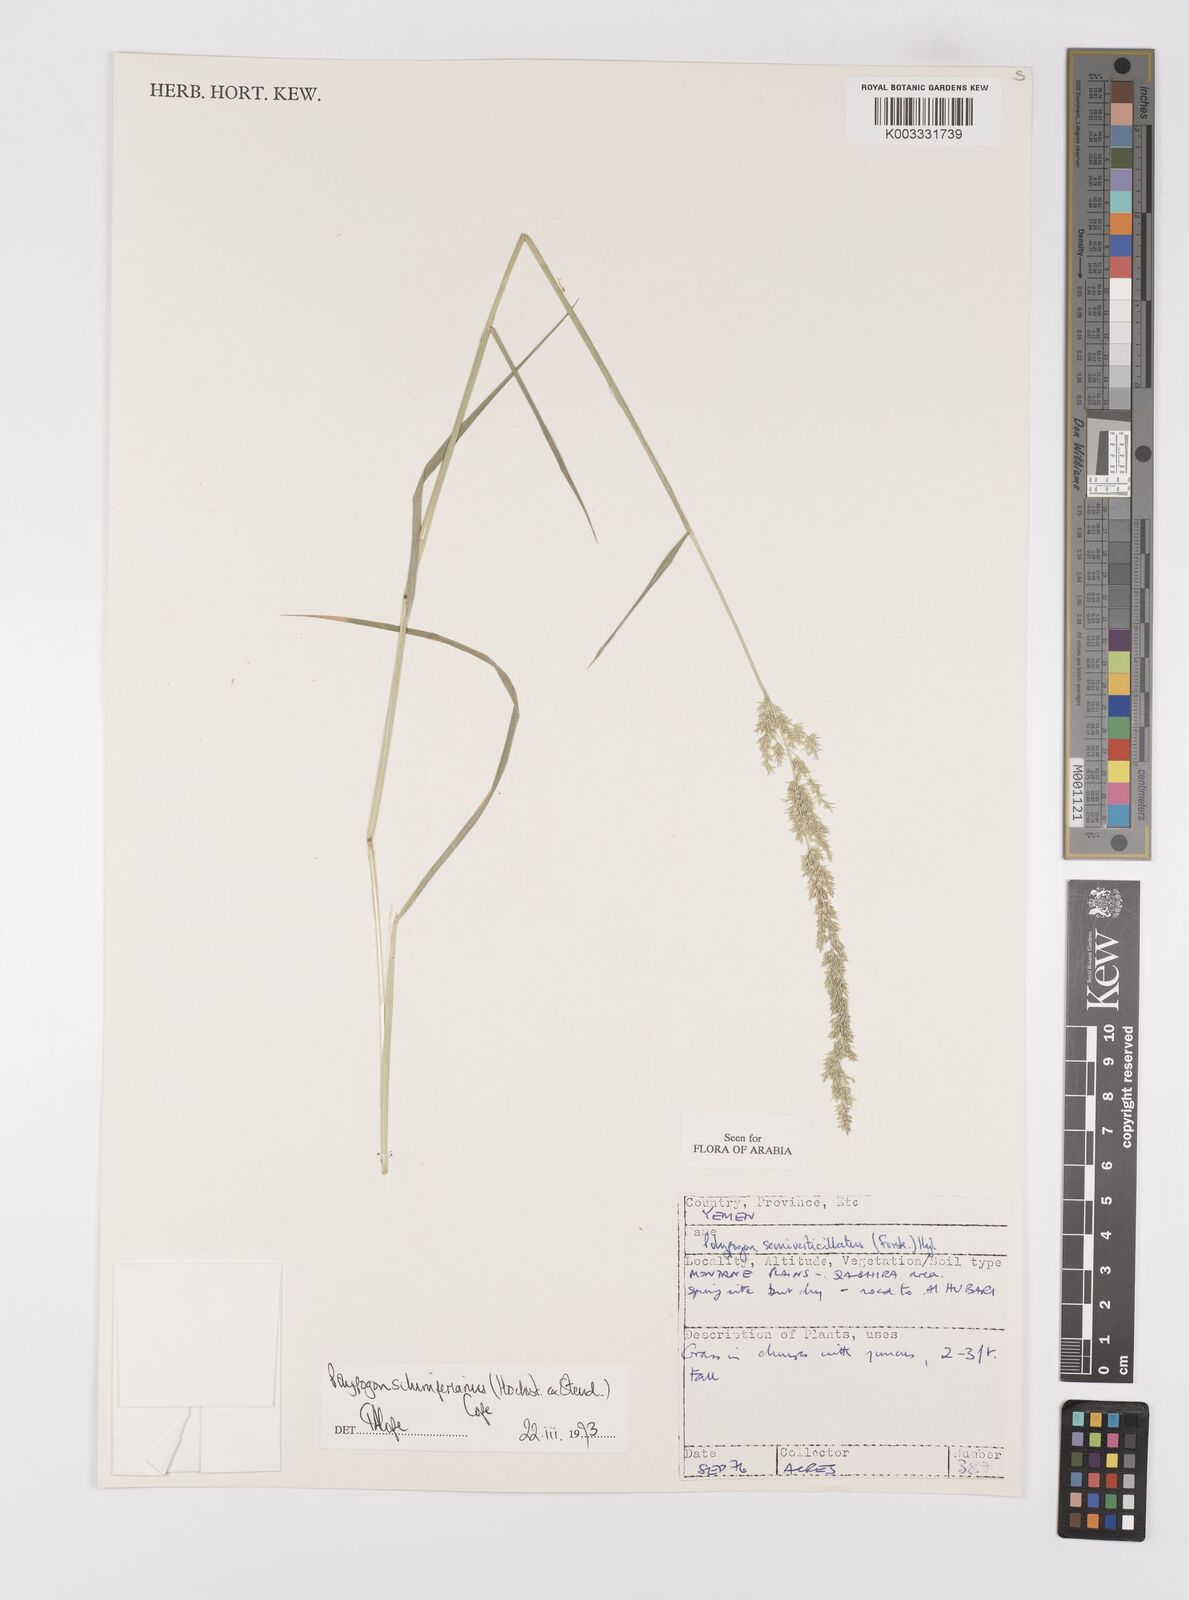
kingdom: Plantae
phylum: Tracheophyta
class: Liliopsida
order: Poales
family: Poaceae
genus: Polypogon
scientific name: Polypogon schimperianus
